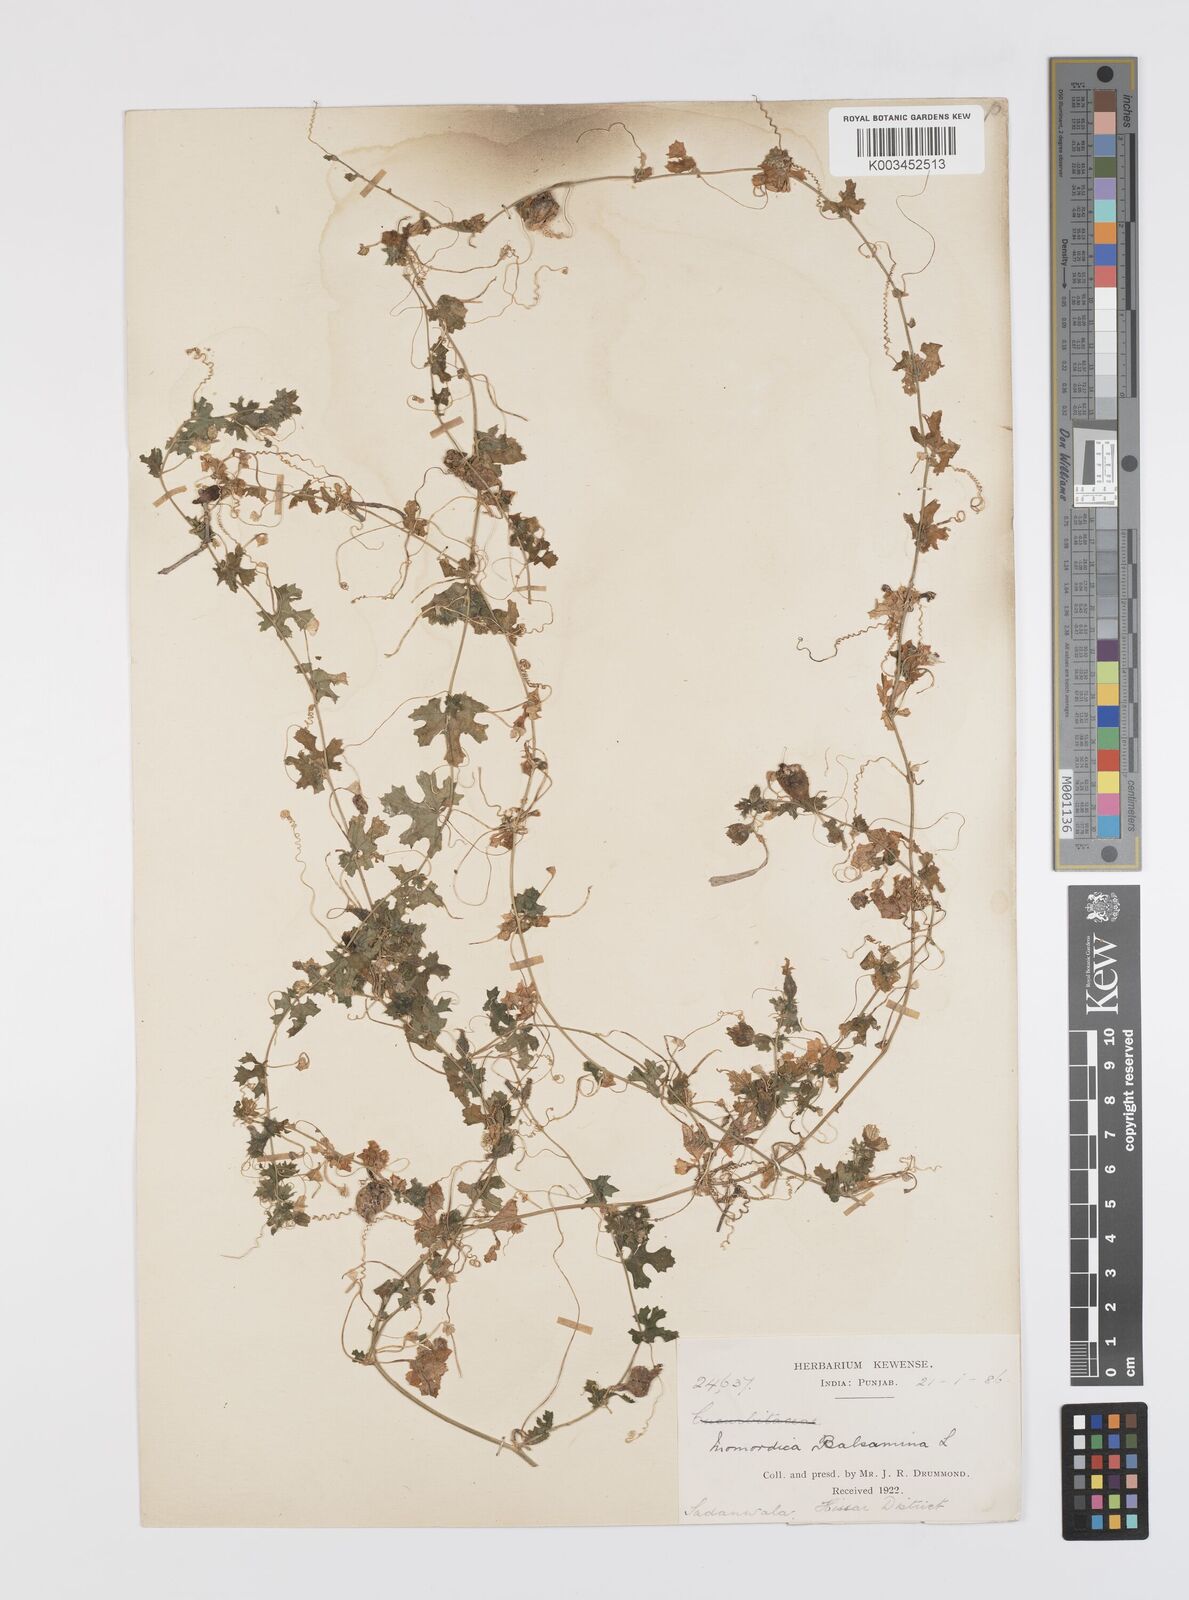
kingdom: Plantae
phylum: Tracheophyta
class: Magnoliopsida
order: Cucurbitales
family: Cucurbitaceae
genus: Momordica
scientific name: Momordica balsamina
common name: Southern balsampear
